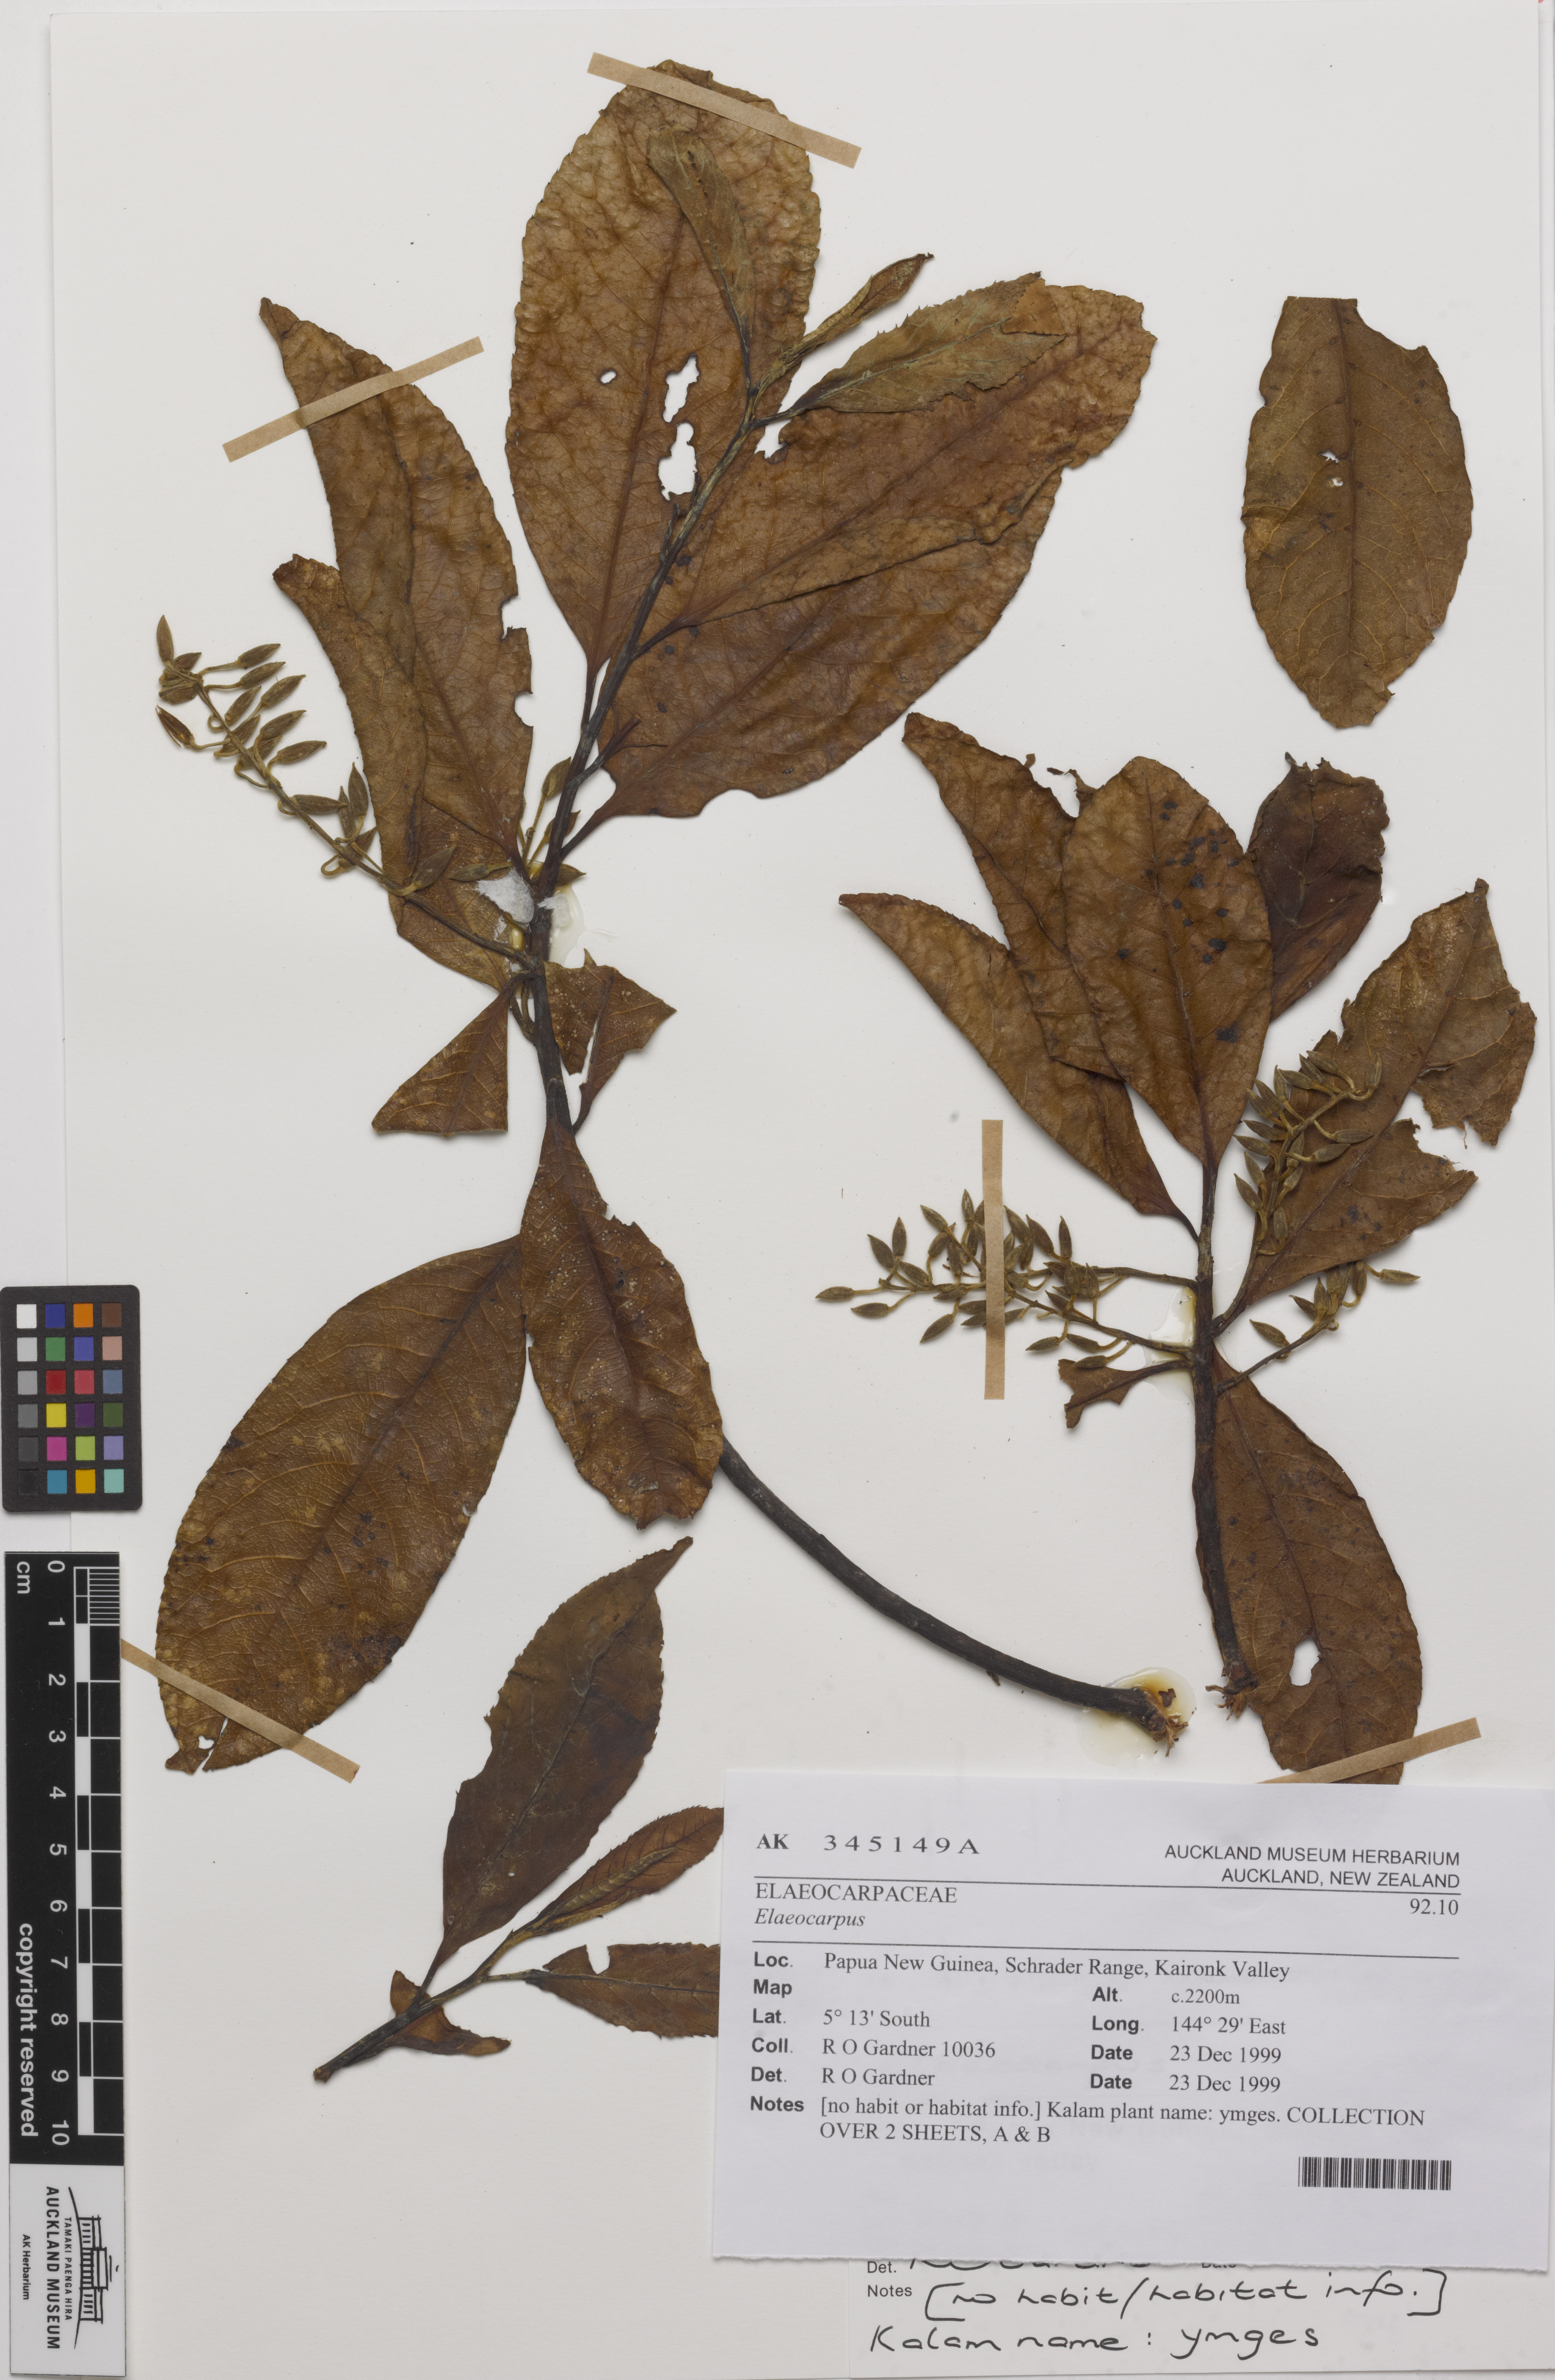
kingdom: Plantae
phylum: Tracheophyta
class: Magnoliopsida
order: Oxalidales
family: Elaeocarpaceae
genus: Elaeocarpus
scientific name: Elaeocarpus
